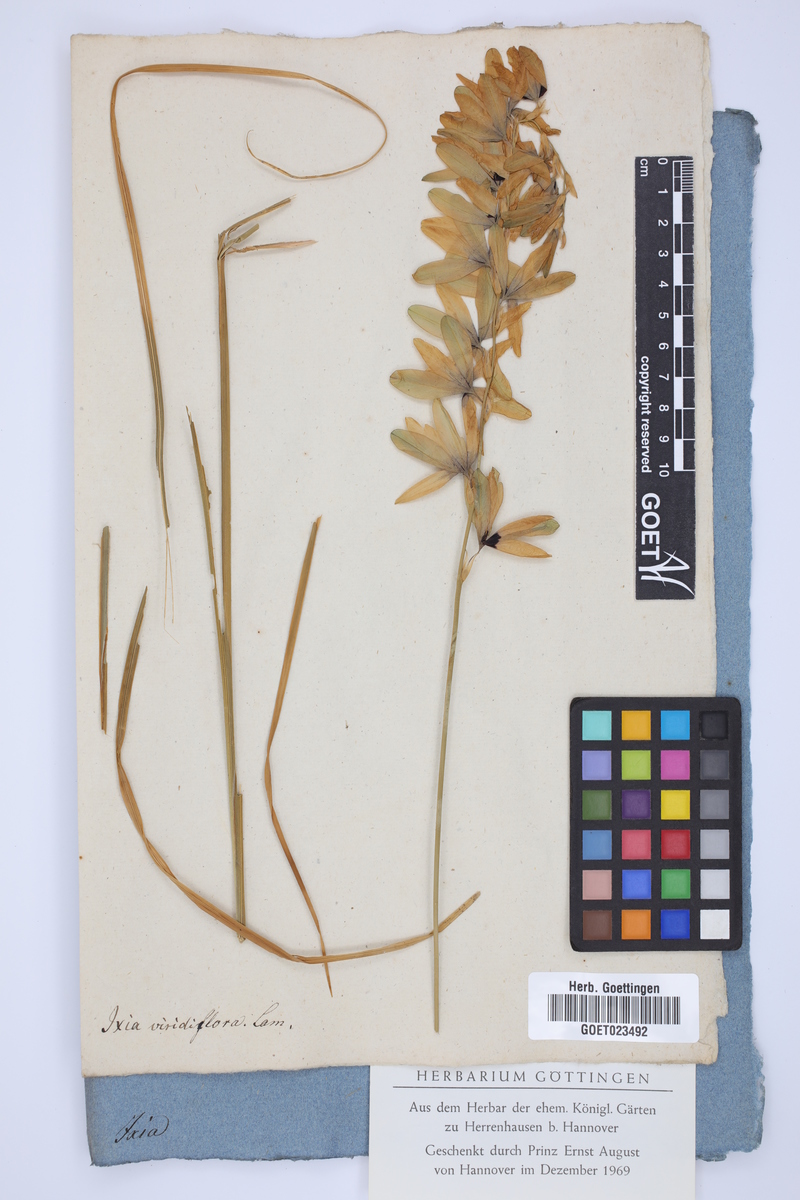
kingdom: Plantae
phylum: Tracheophyta
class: Liliopsida
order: Asparagales
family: Iridaceae
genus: Ixia
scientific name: Ixia viridiflora
